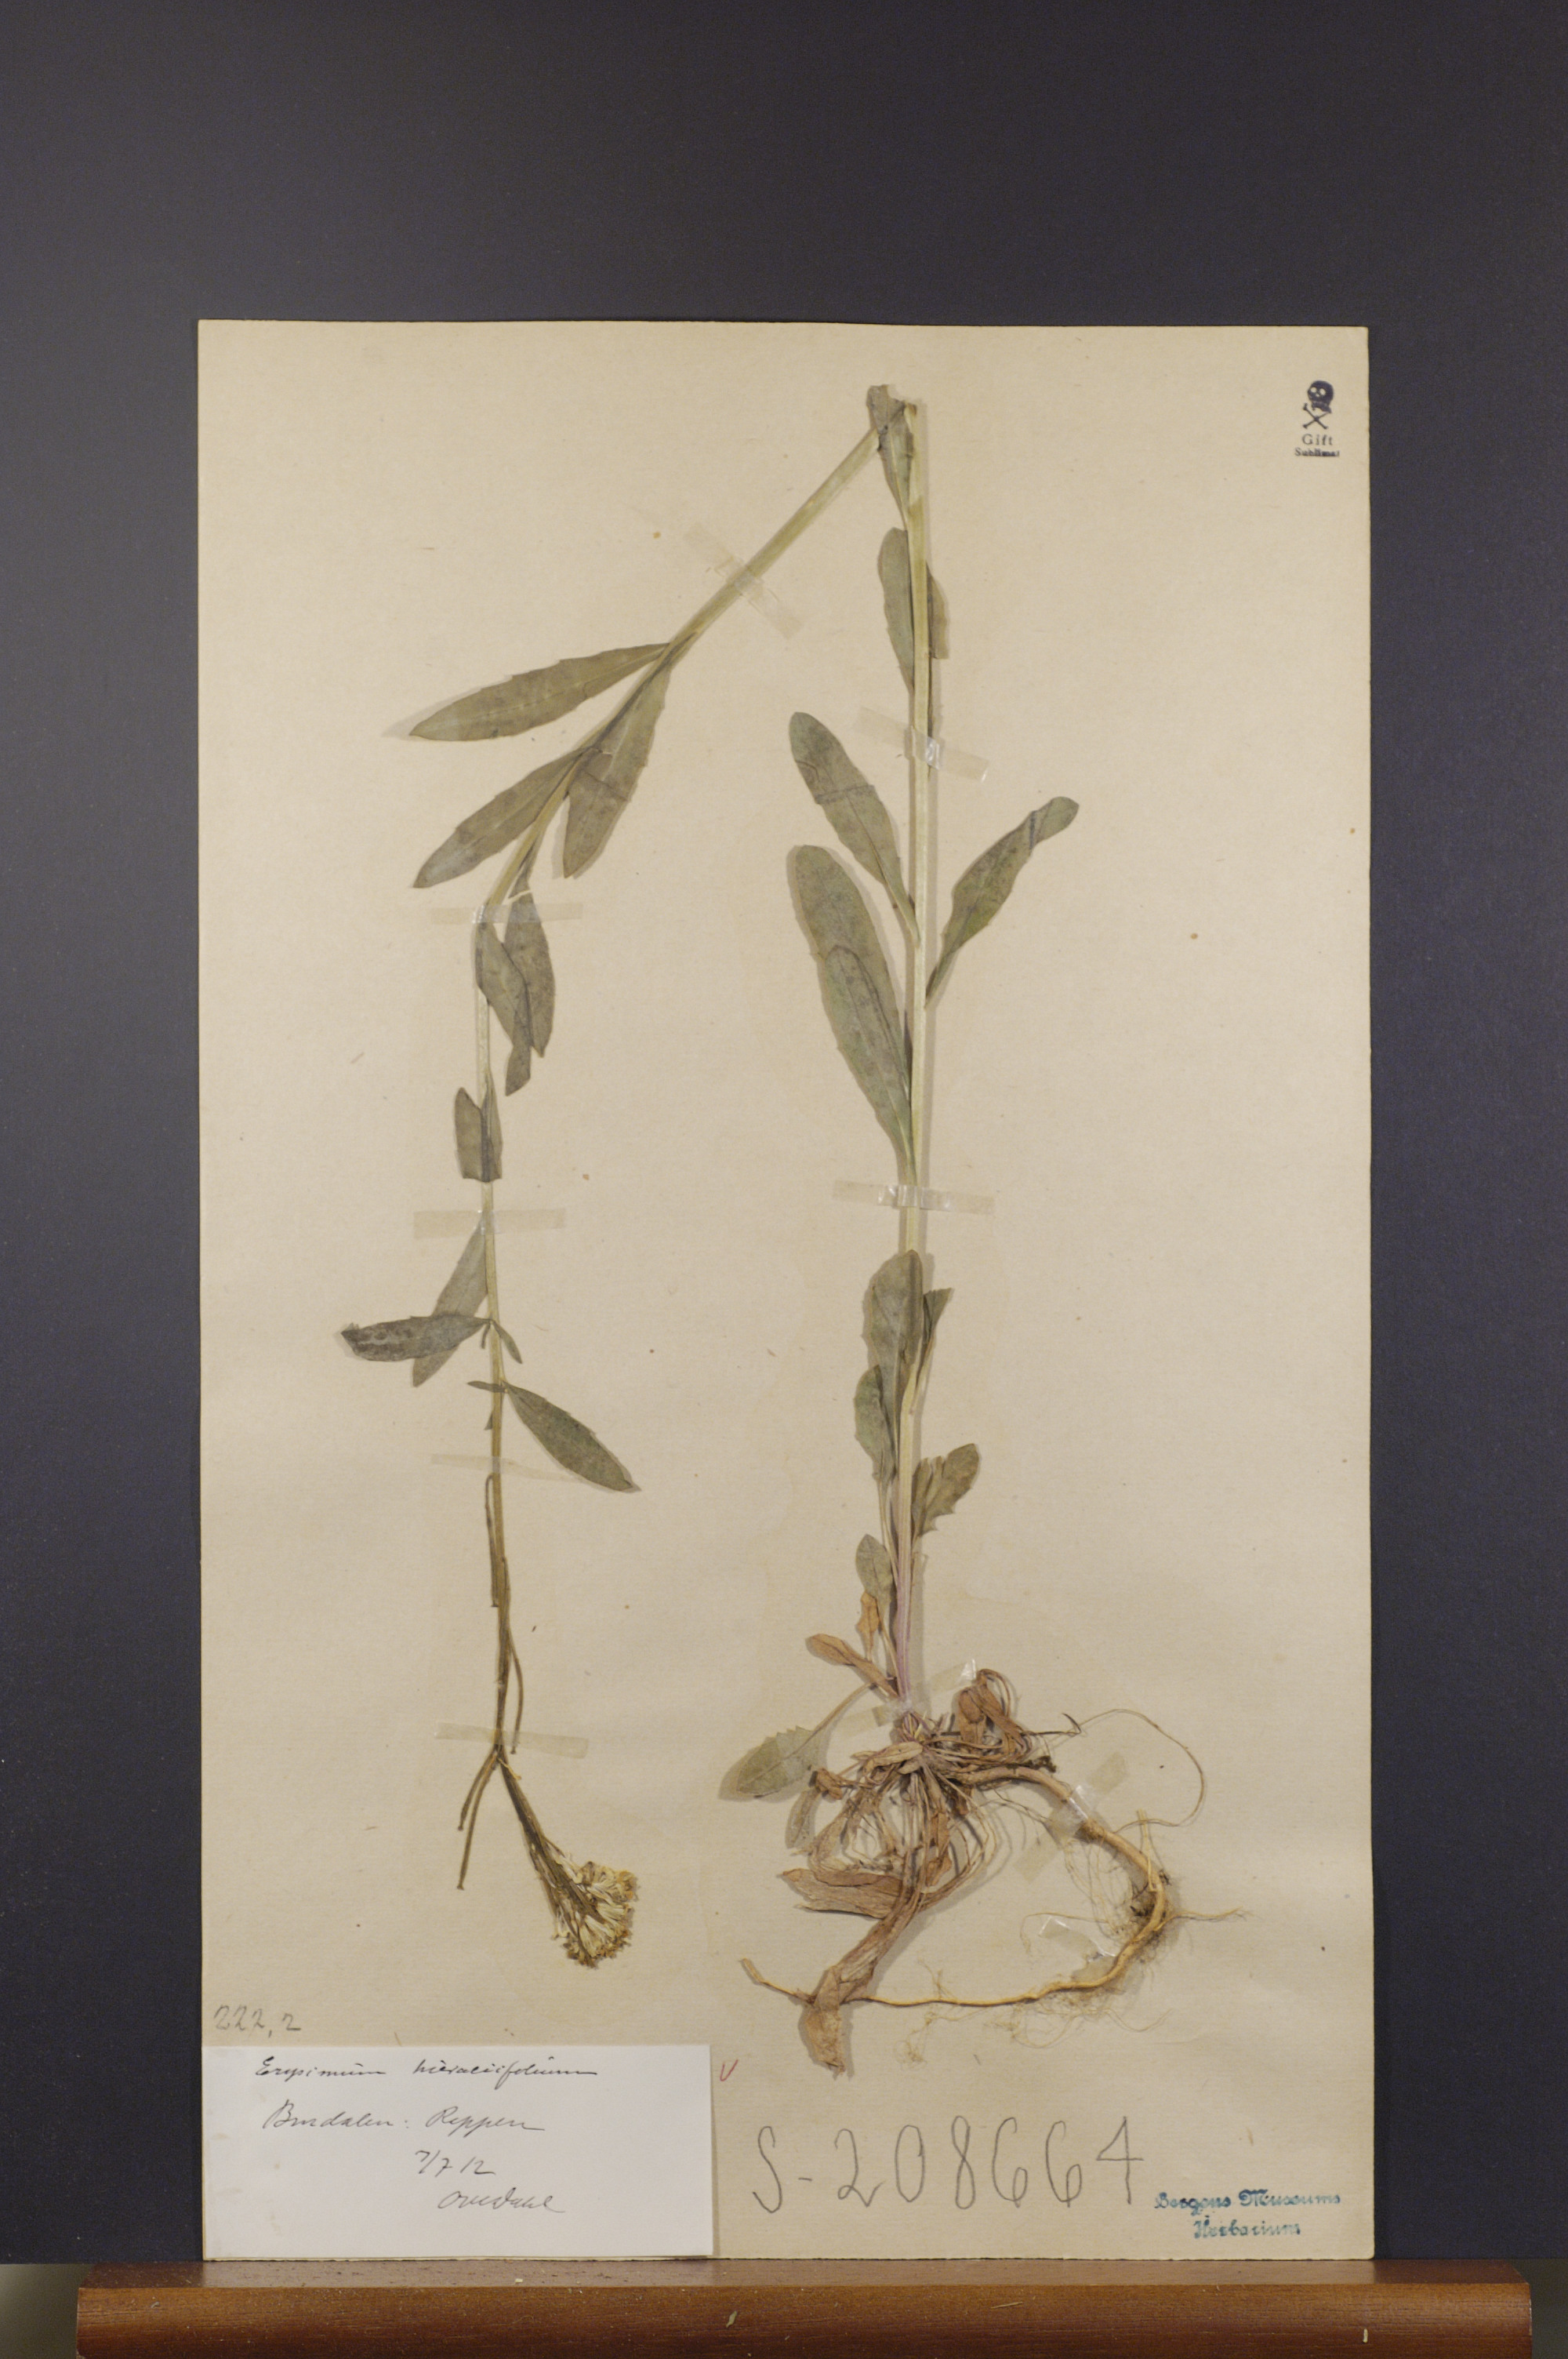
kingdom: Plantae
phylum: Tracheophyta
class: Magnoliopsida
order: Brassicales
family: Brassicaceae
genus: Erysimum
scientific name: Erysimum hieraciifolium
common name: European wallflower
